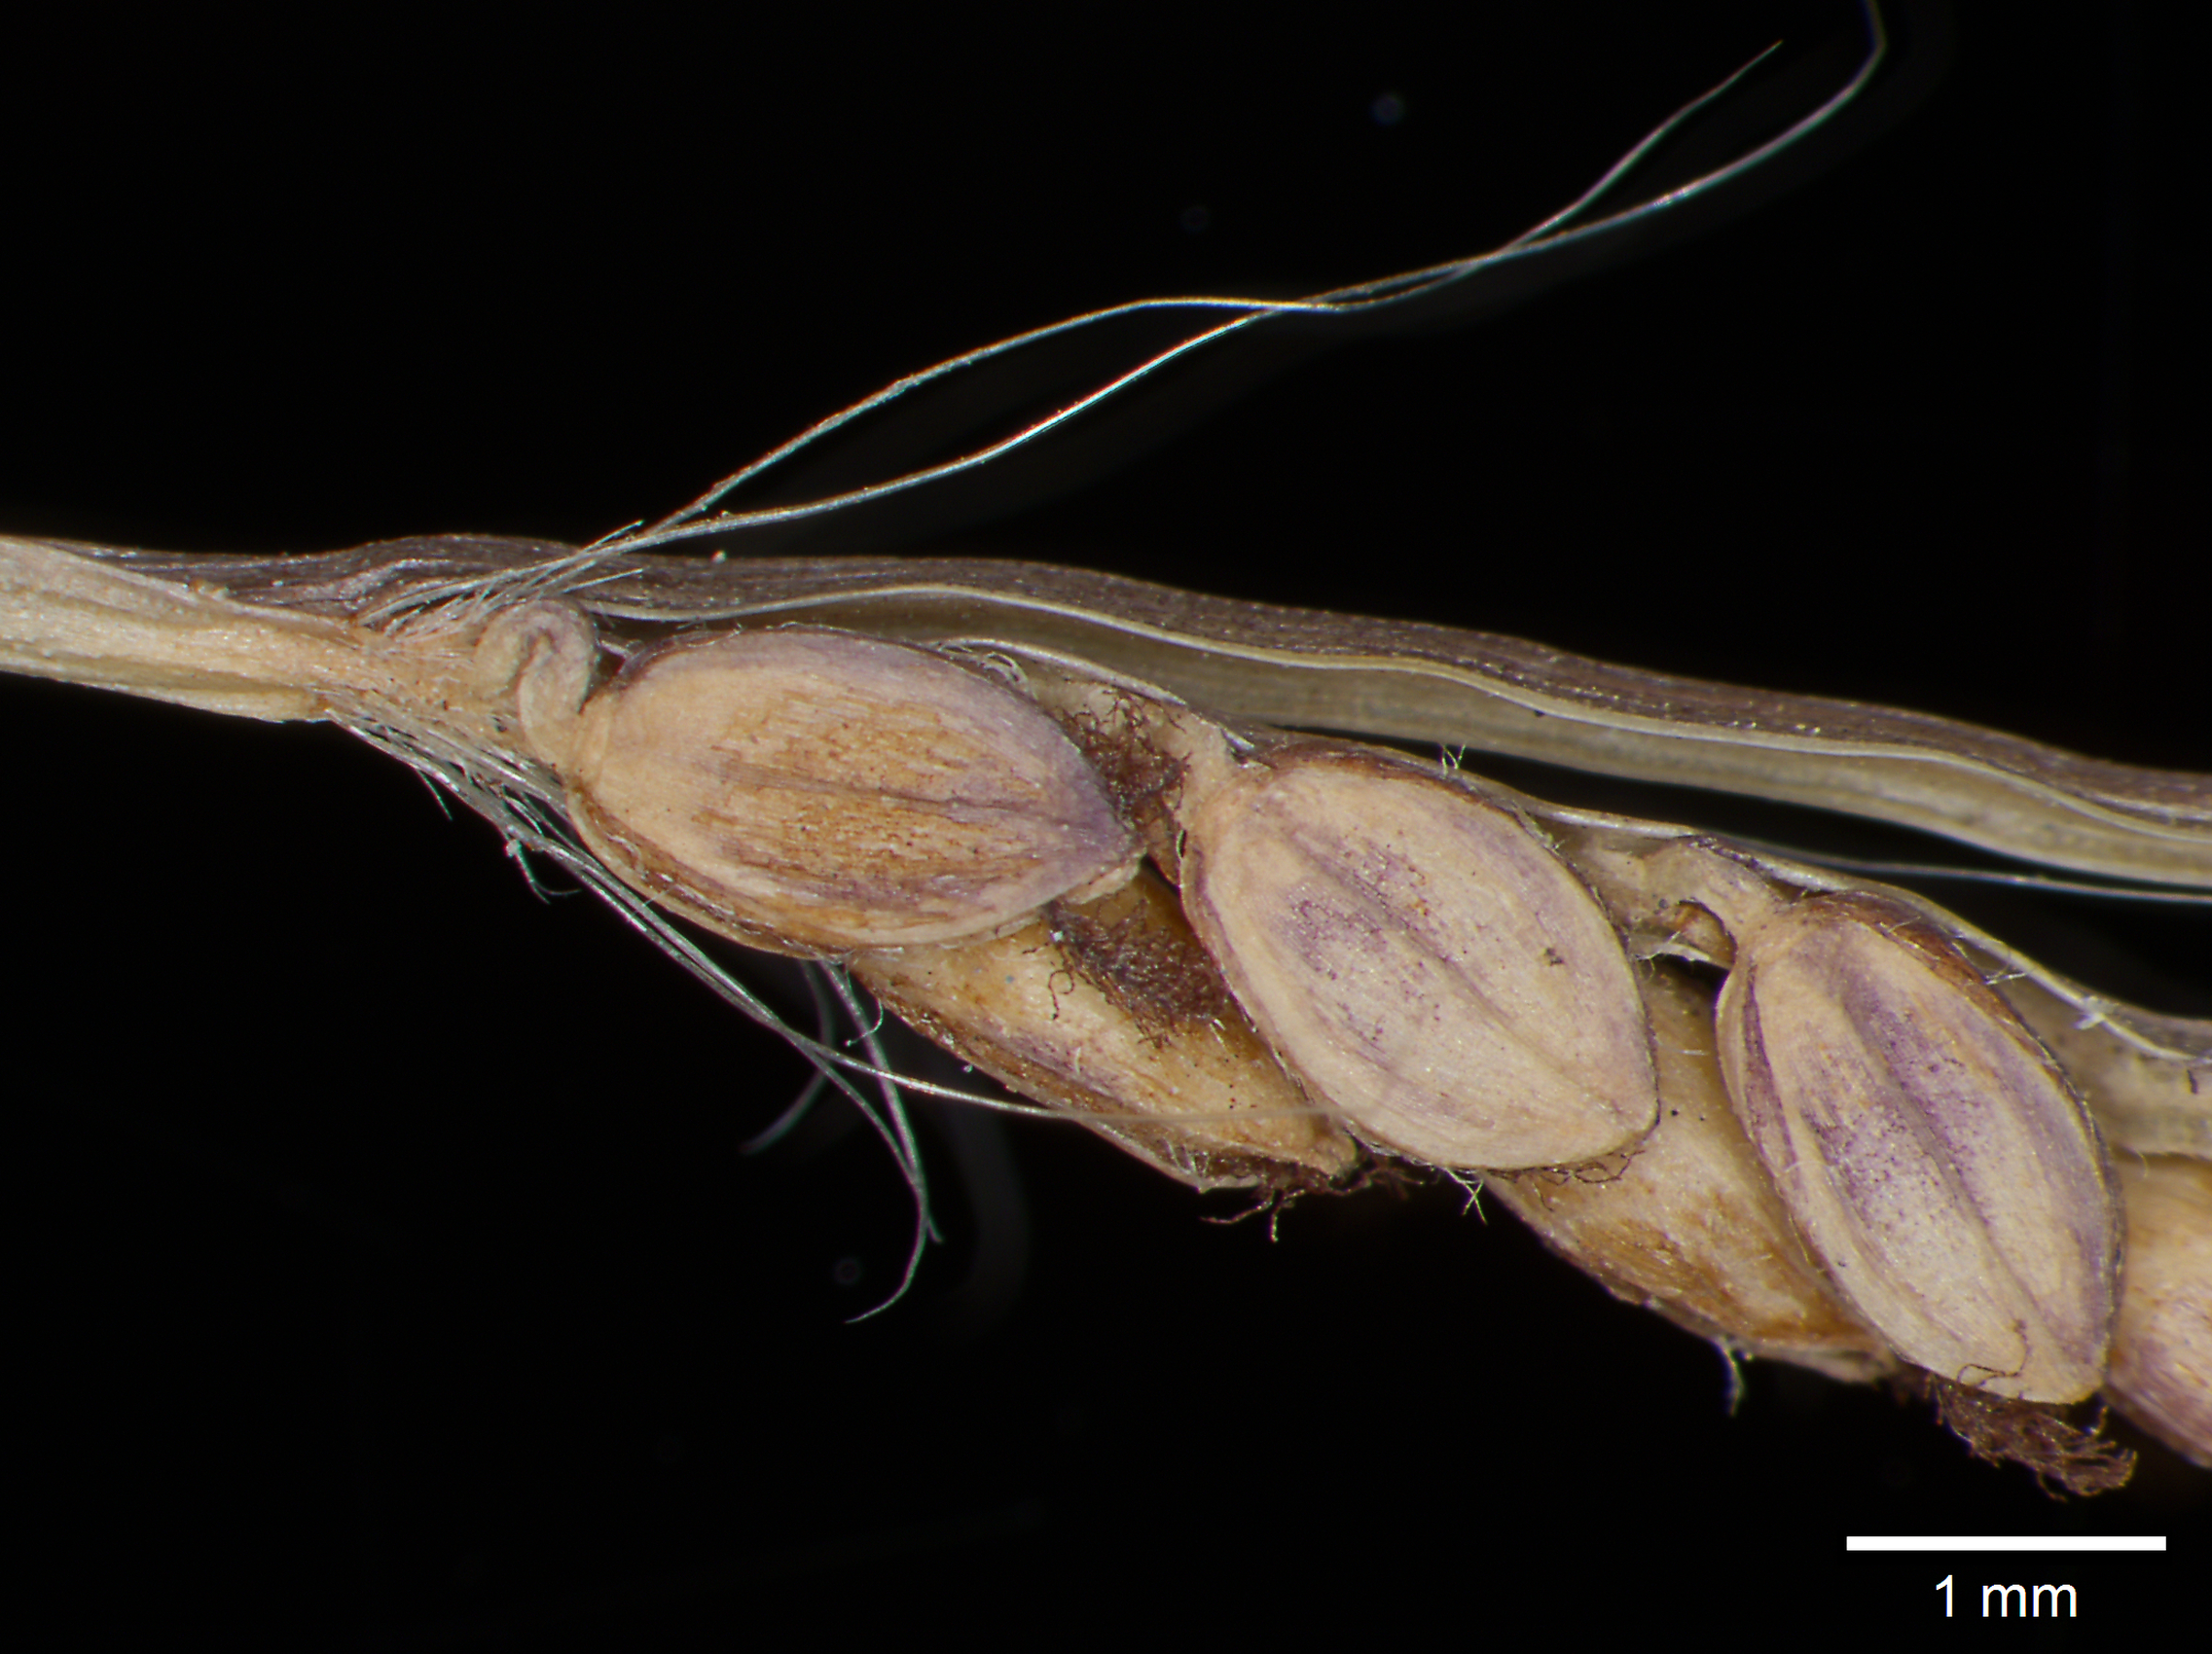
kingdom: Plantae
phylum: Tracheophyta
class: Liliopsida
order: Poales
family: Poaceae
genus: Paspalum
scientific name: Paspalum acutifolium
